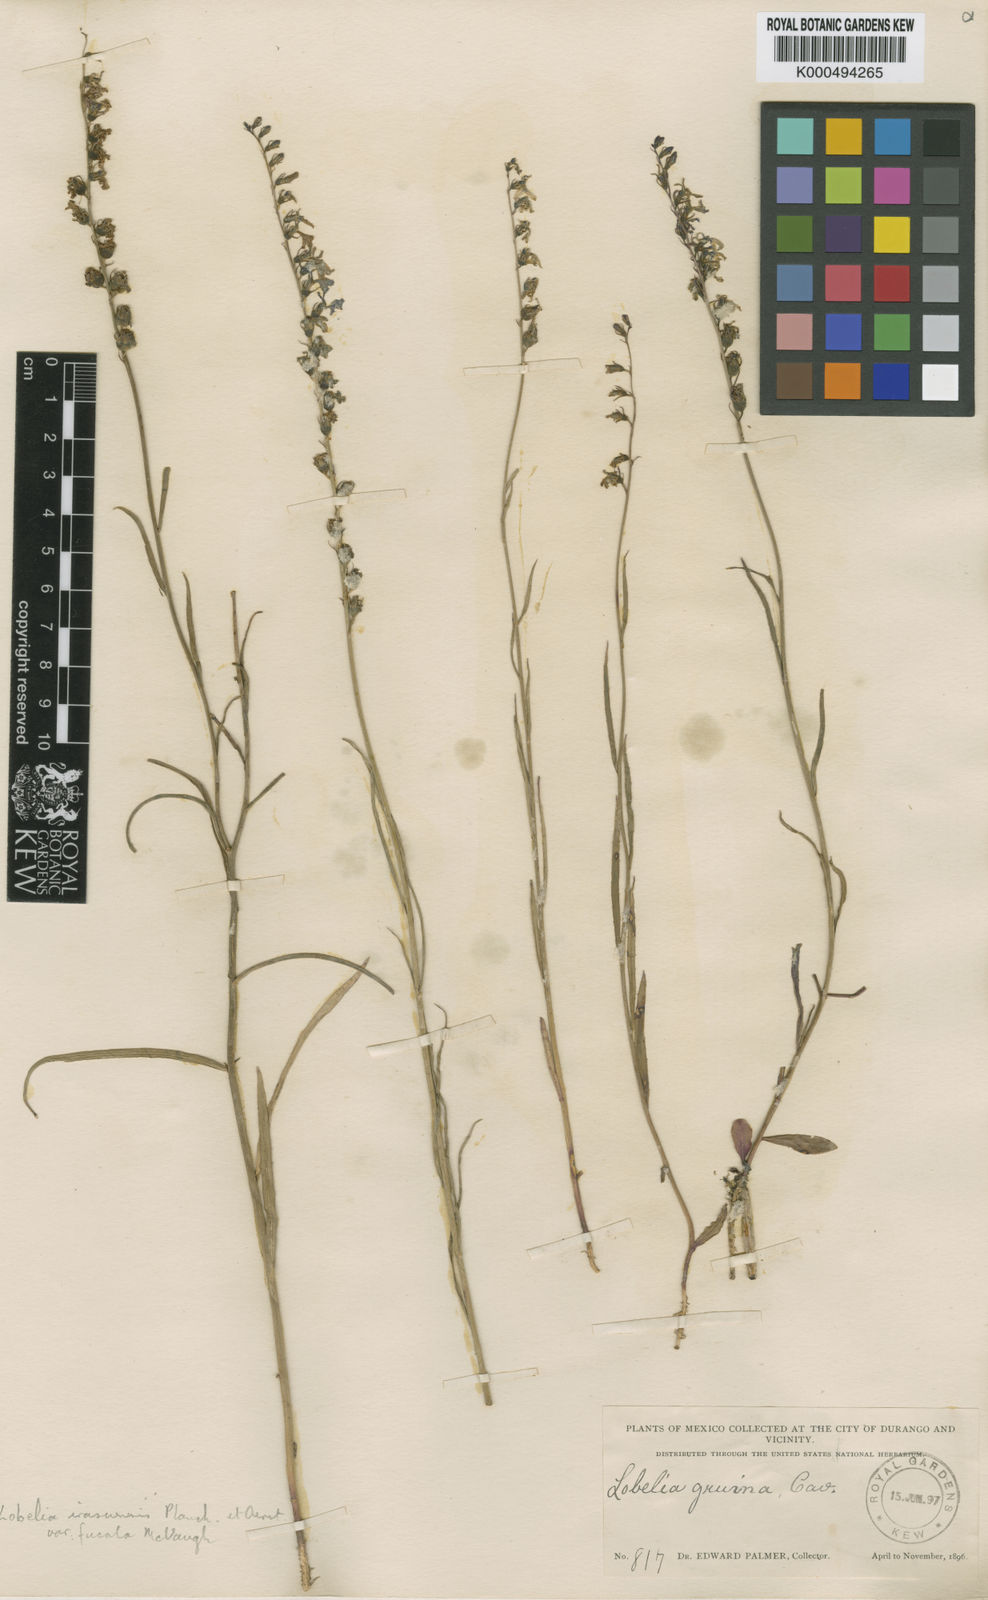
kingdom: Plantae
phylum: Tracheophyta
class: Magnoliopsida
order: Asterales
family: Campanulaceae
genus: Lobelia
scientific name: Lobelia irasuensis
